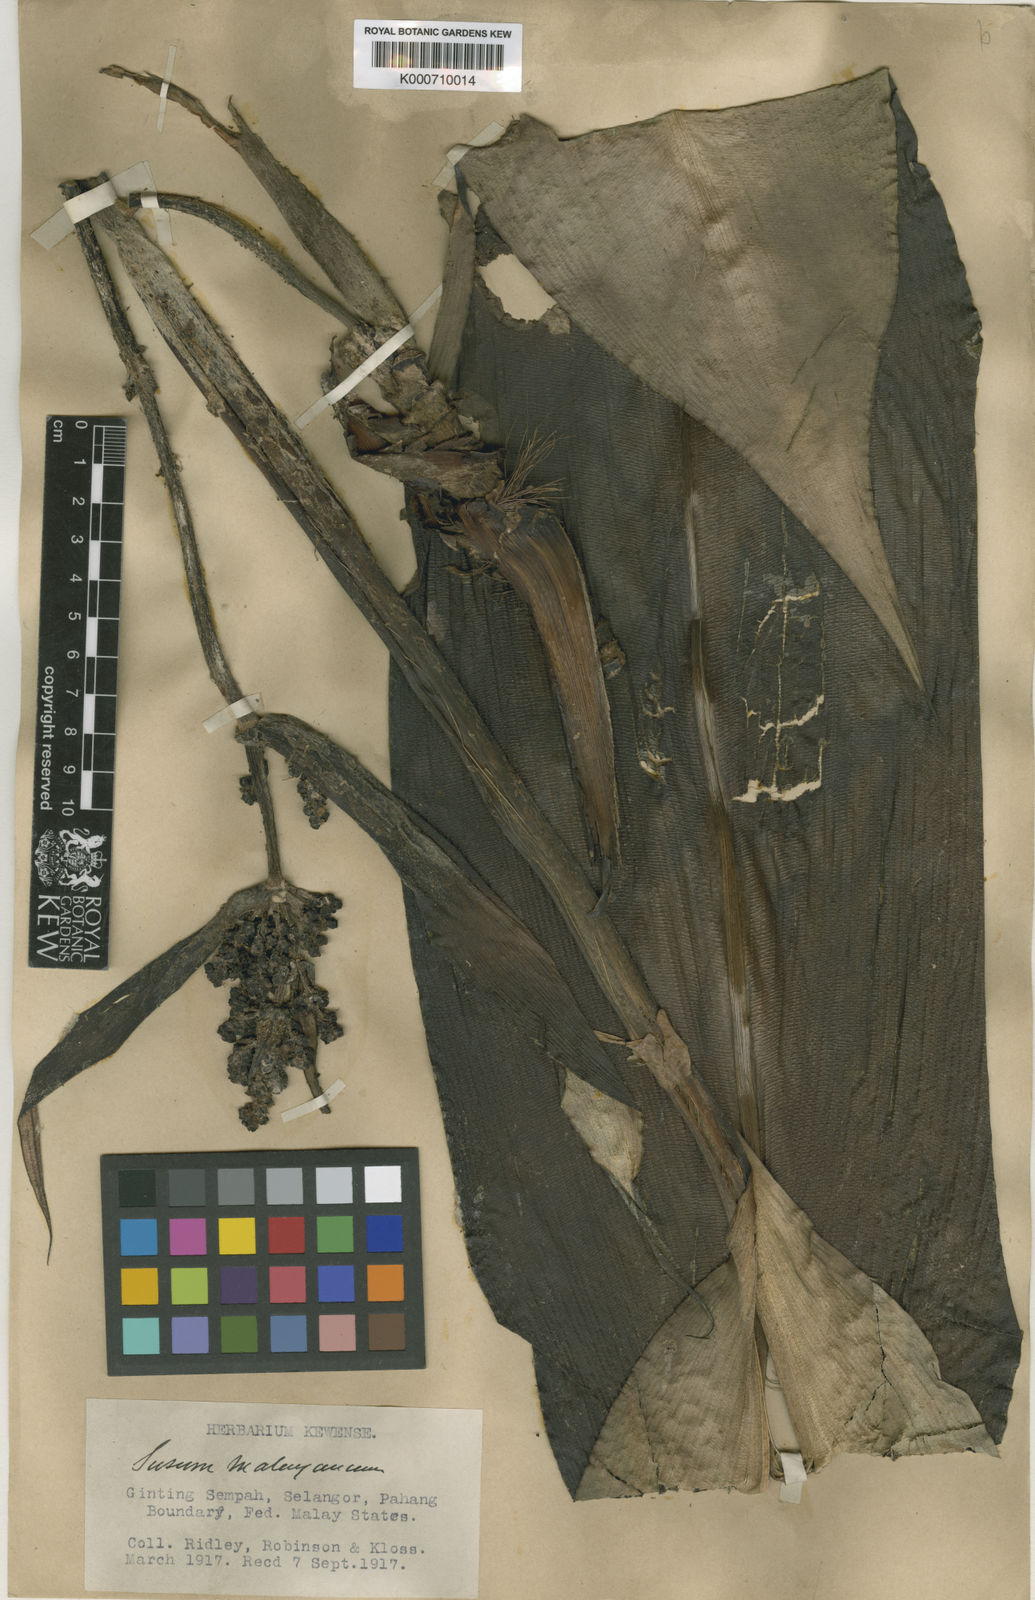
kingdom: Plantae
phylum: Tracheophyta
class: Liliopsida
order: Commelinales
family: Hanguanaceae
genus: Hanguana
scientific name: Hanguana malayana
